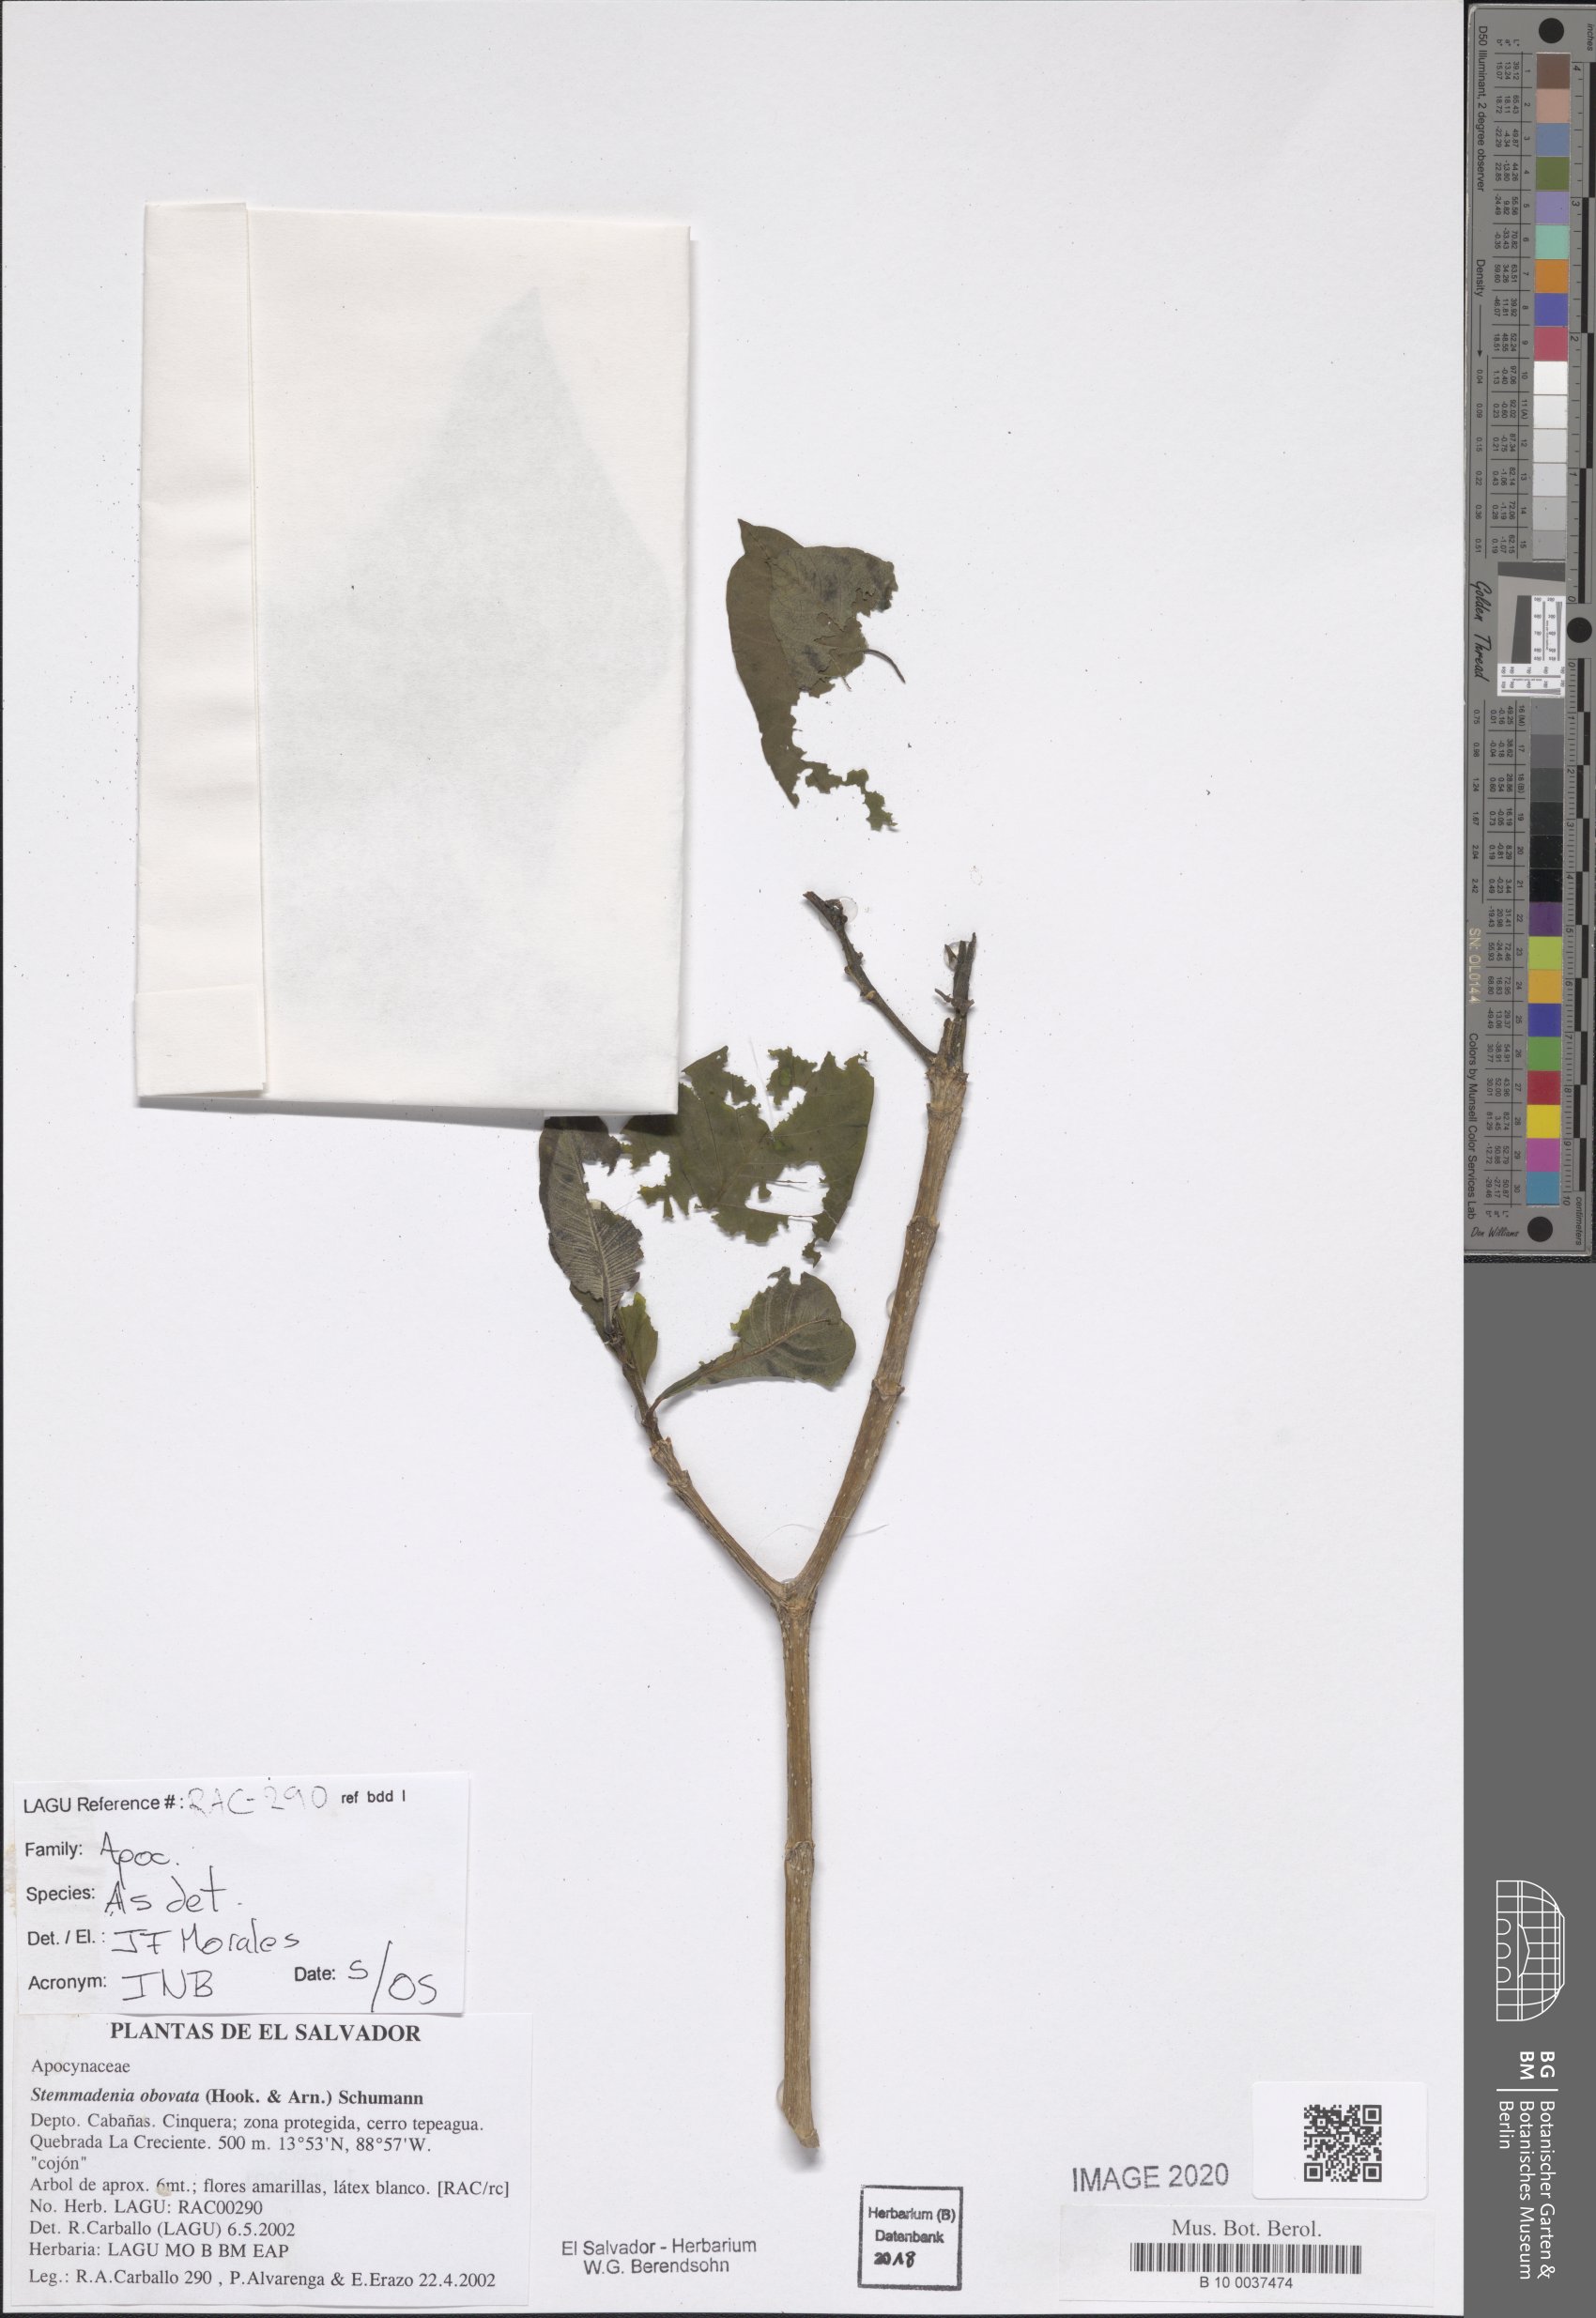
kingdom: Plantae
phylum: Tracheophyta
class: Magnoliopsida
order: Gentianales
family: Apocynaceae
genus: Tabernaemontana
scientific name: Tabernaemontana glabra
